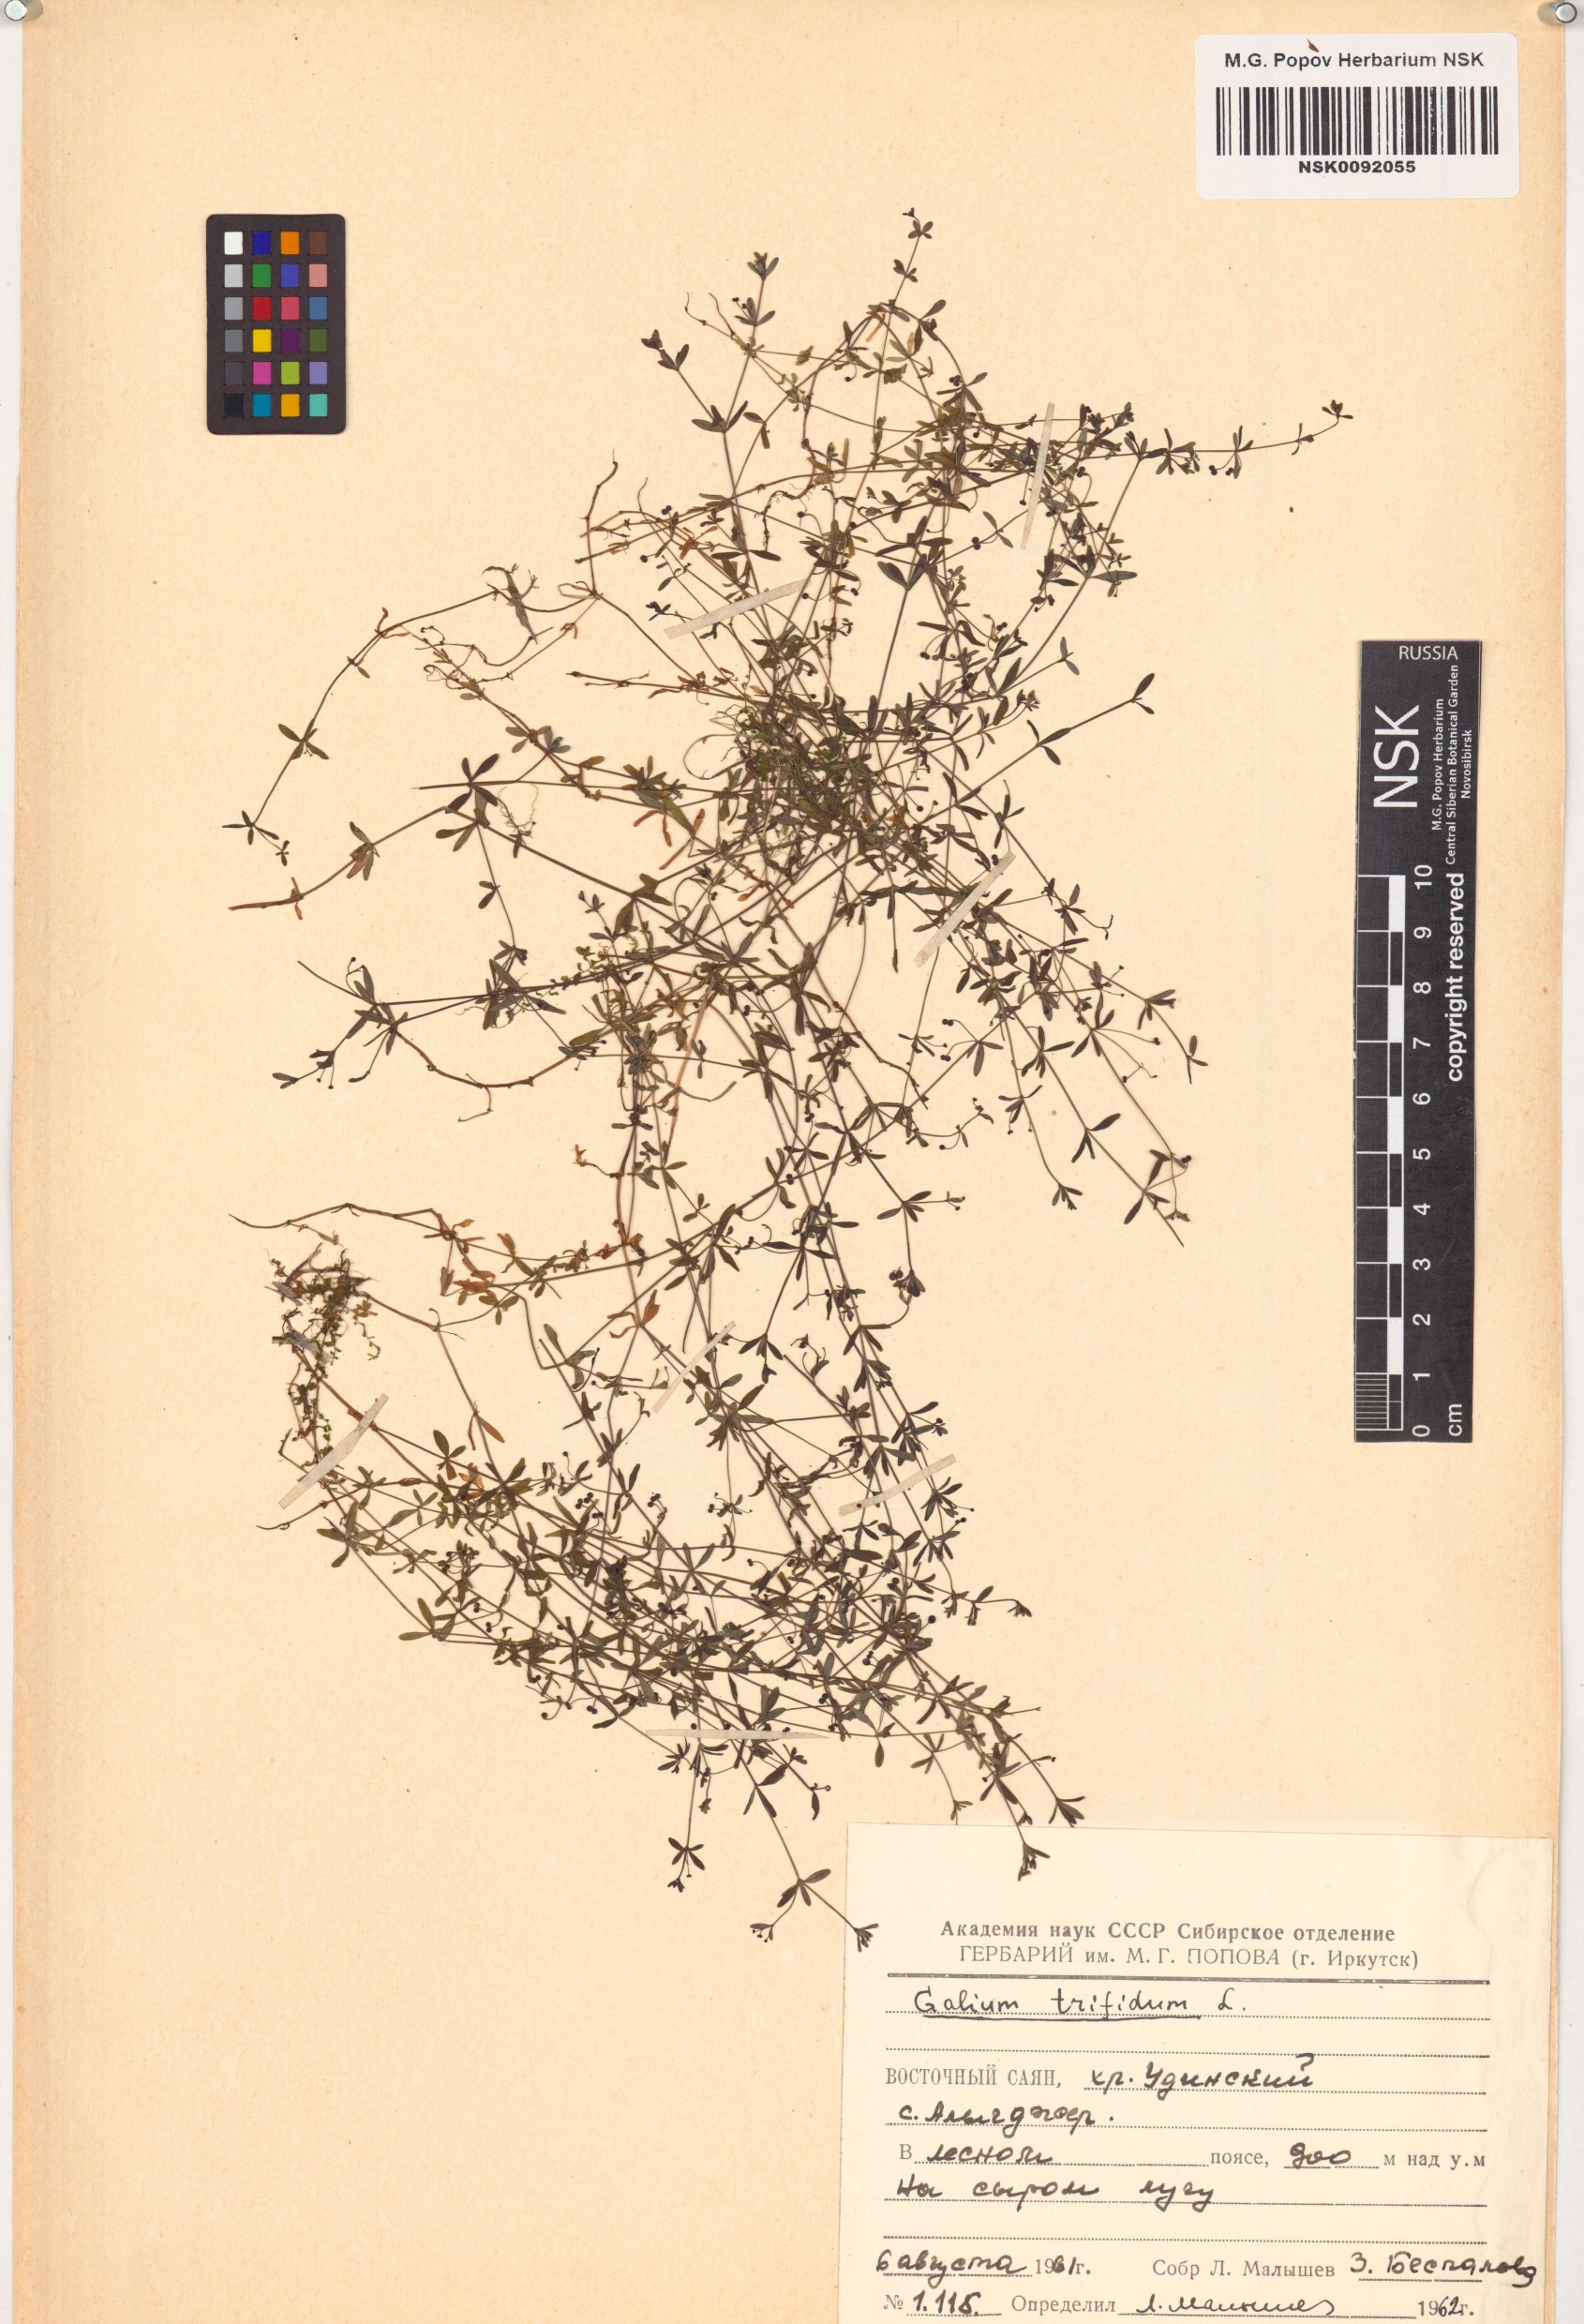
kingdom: Plantae
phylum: Tracheophyta
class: Magnoliopsida
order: Gentianales
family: Rubiaceae
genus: Galium
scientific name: Galium trifidum
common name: Small bedstraw
